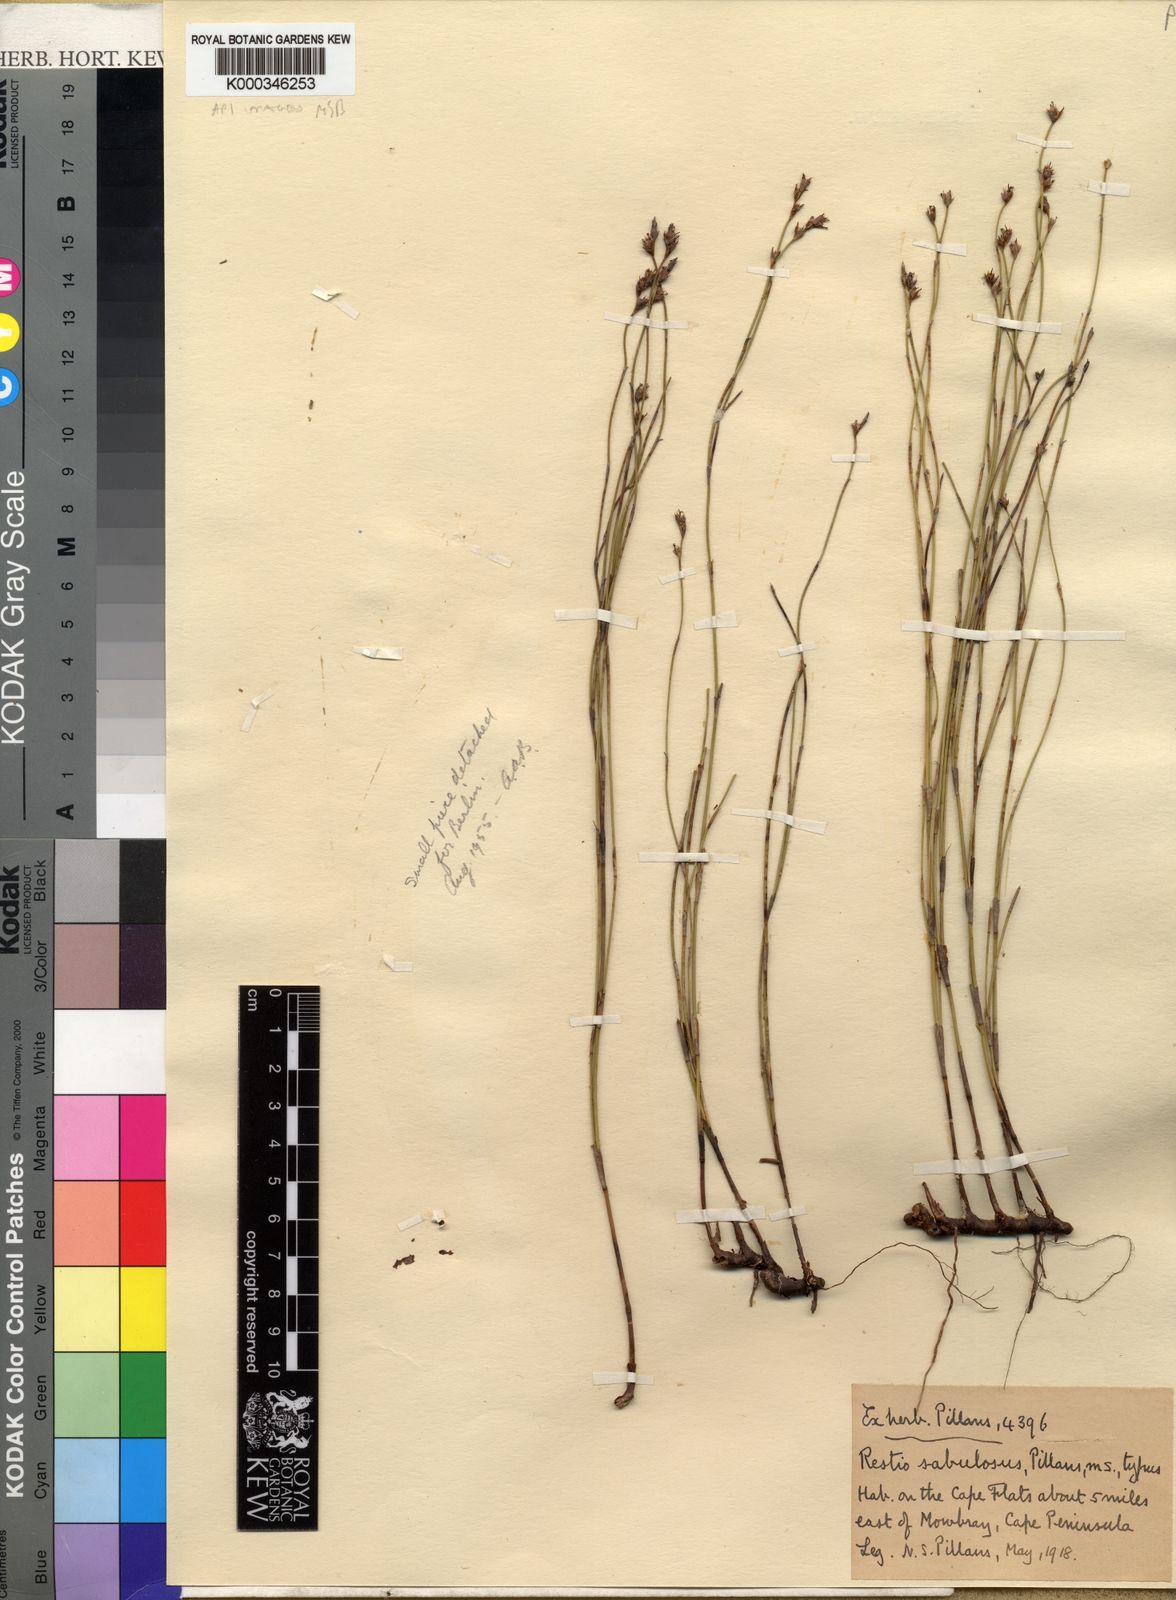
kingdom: Plantae
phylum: Tracheophyta
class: Liliopsida
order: Poales
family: Restionaceae
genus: Restio
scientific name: Restio sabulosus
